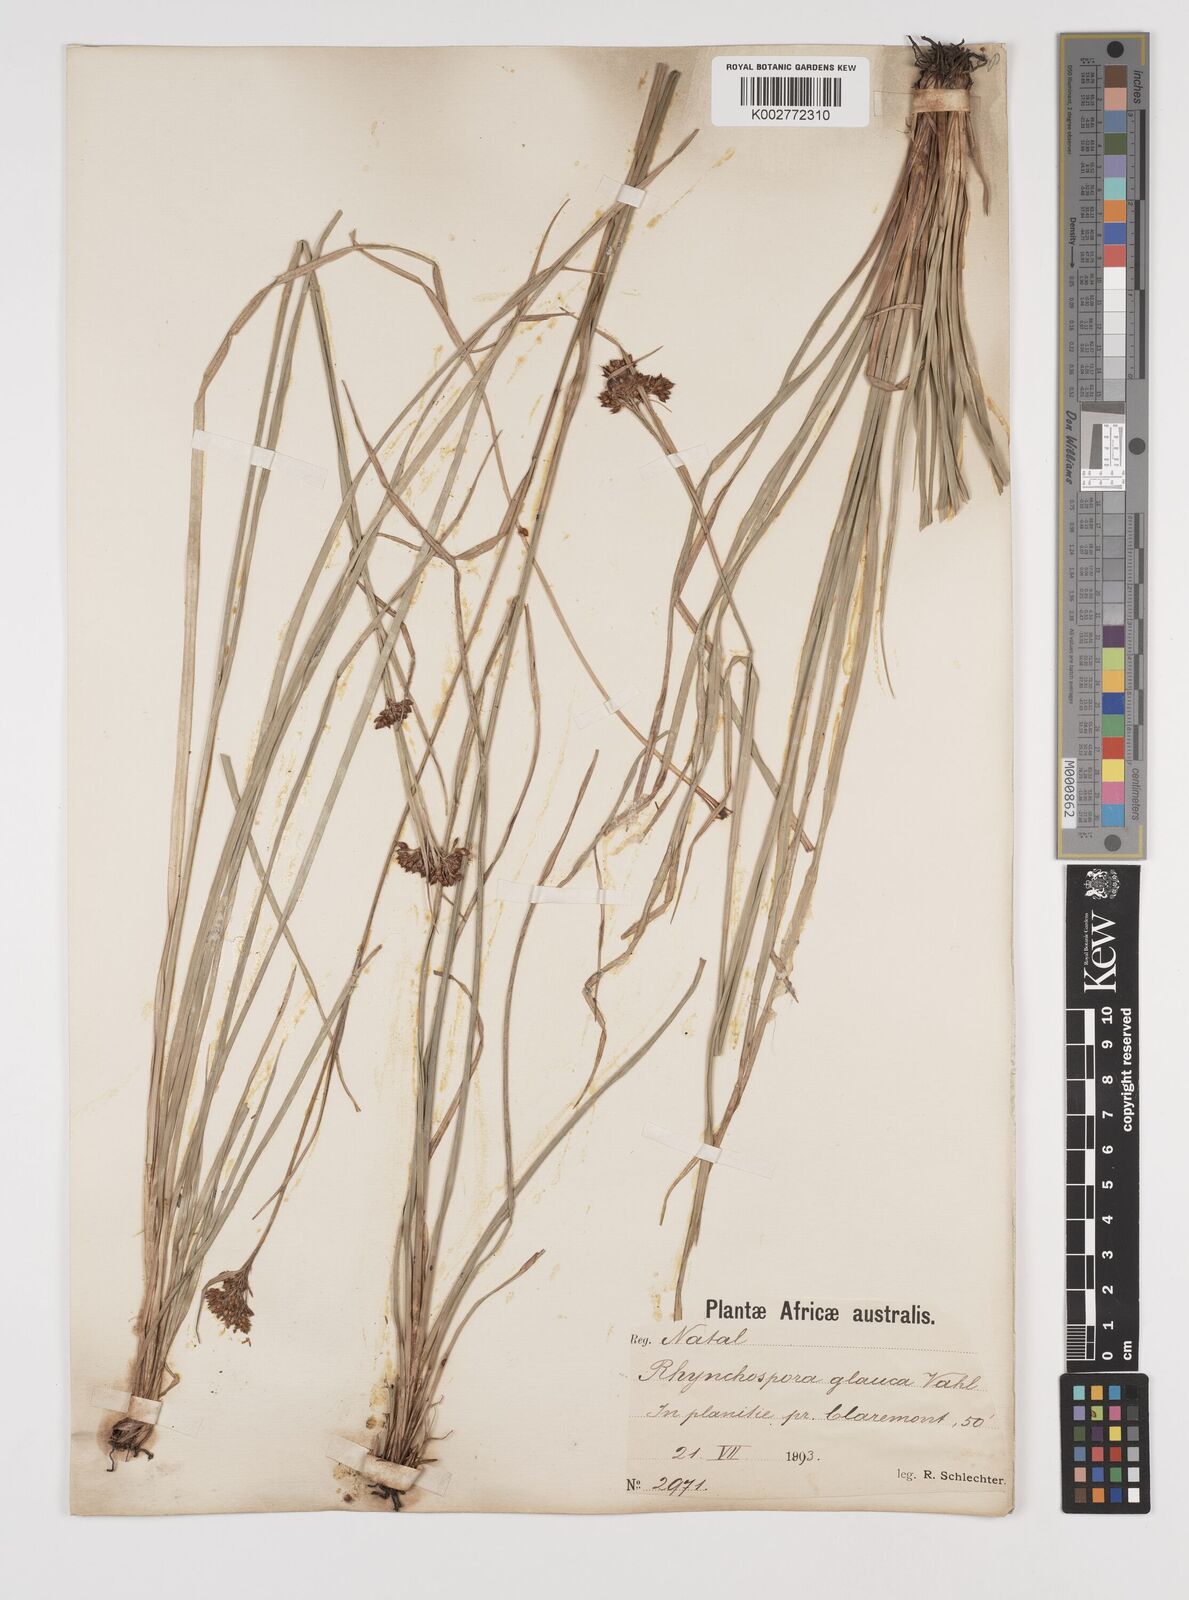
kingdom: Plantae
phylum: Tracheophyta
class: Liliopsida
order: Poales
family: Cyperaceae
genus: Rhynchospora
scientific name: Rhynchospora rugosa
